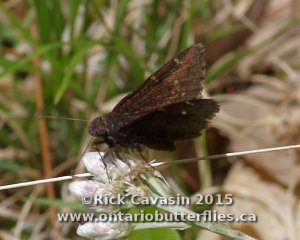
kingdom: Animalia
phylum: Arthropoda
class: Insecta
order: Lepidoptera
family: Hesperiidae
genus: Autochton
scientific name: Autochton
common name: Northern Cloudywing
